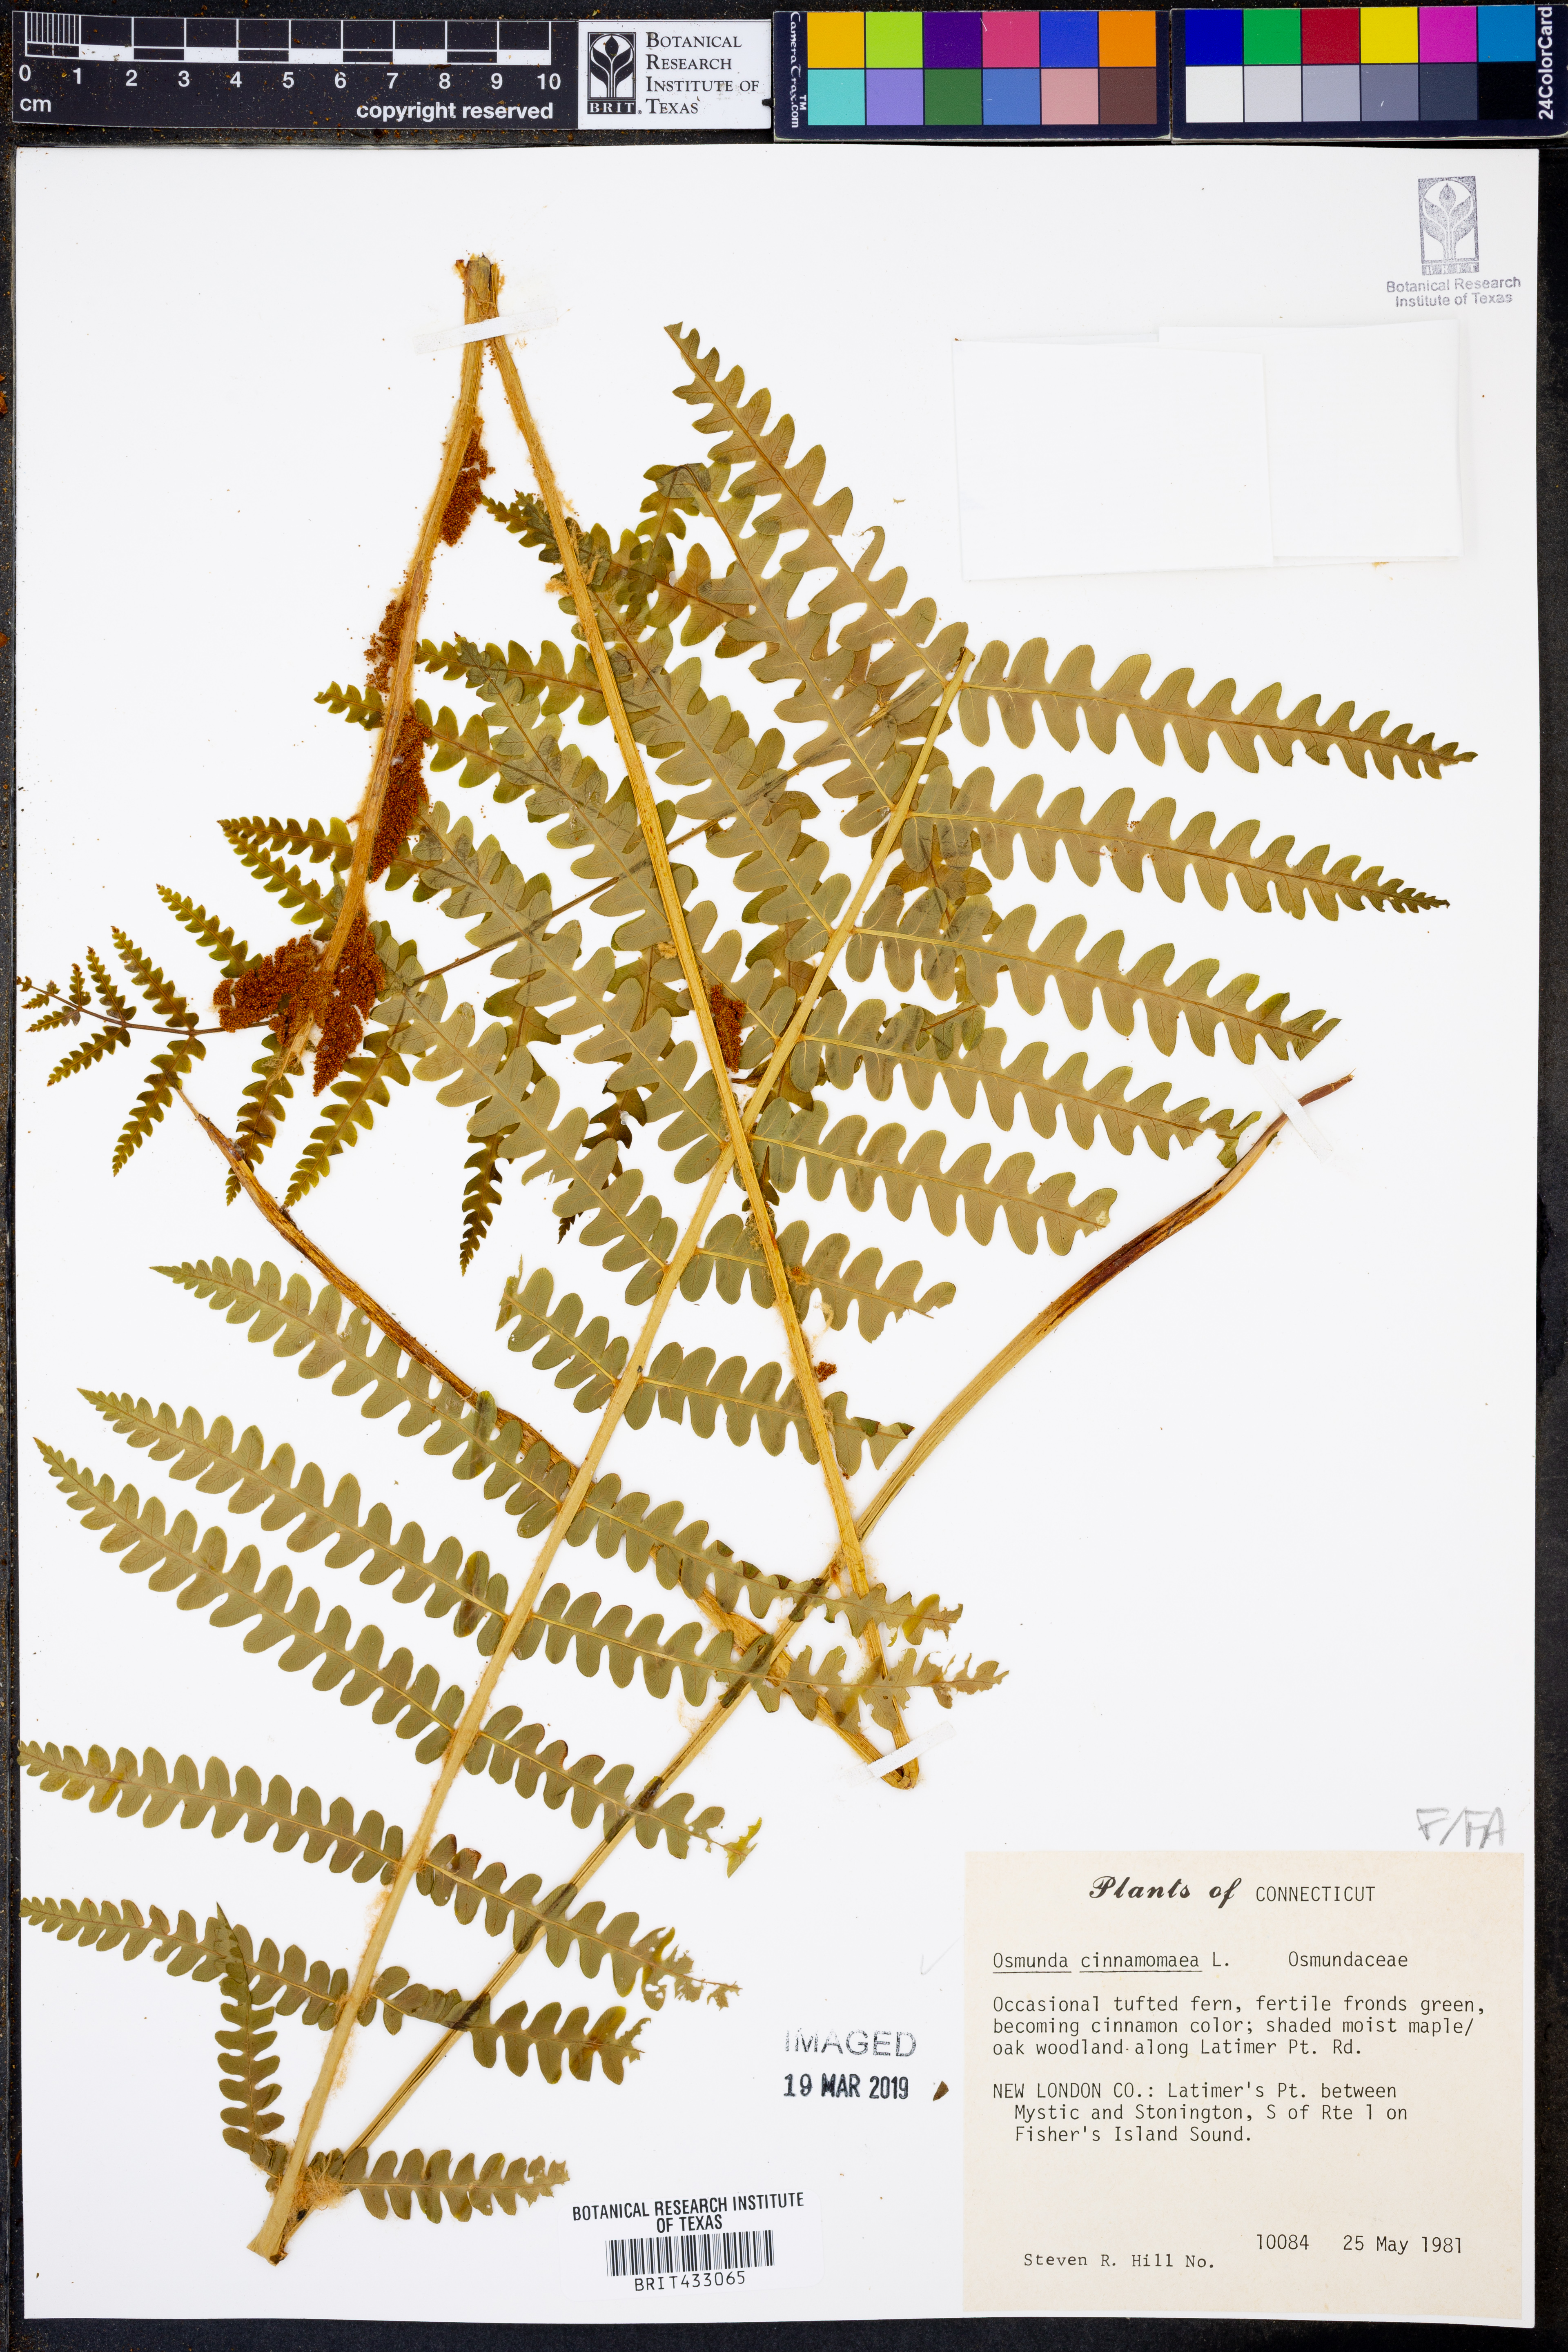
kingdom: Plantae
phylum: Tracheophyta
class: Polypodiopsida
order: Osmundales
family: Osmundaceae
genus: Osmundastrum
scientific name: Osmundastrum cinnamomeum
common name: Cinnamon fern
